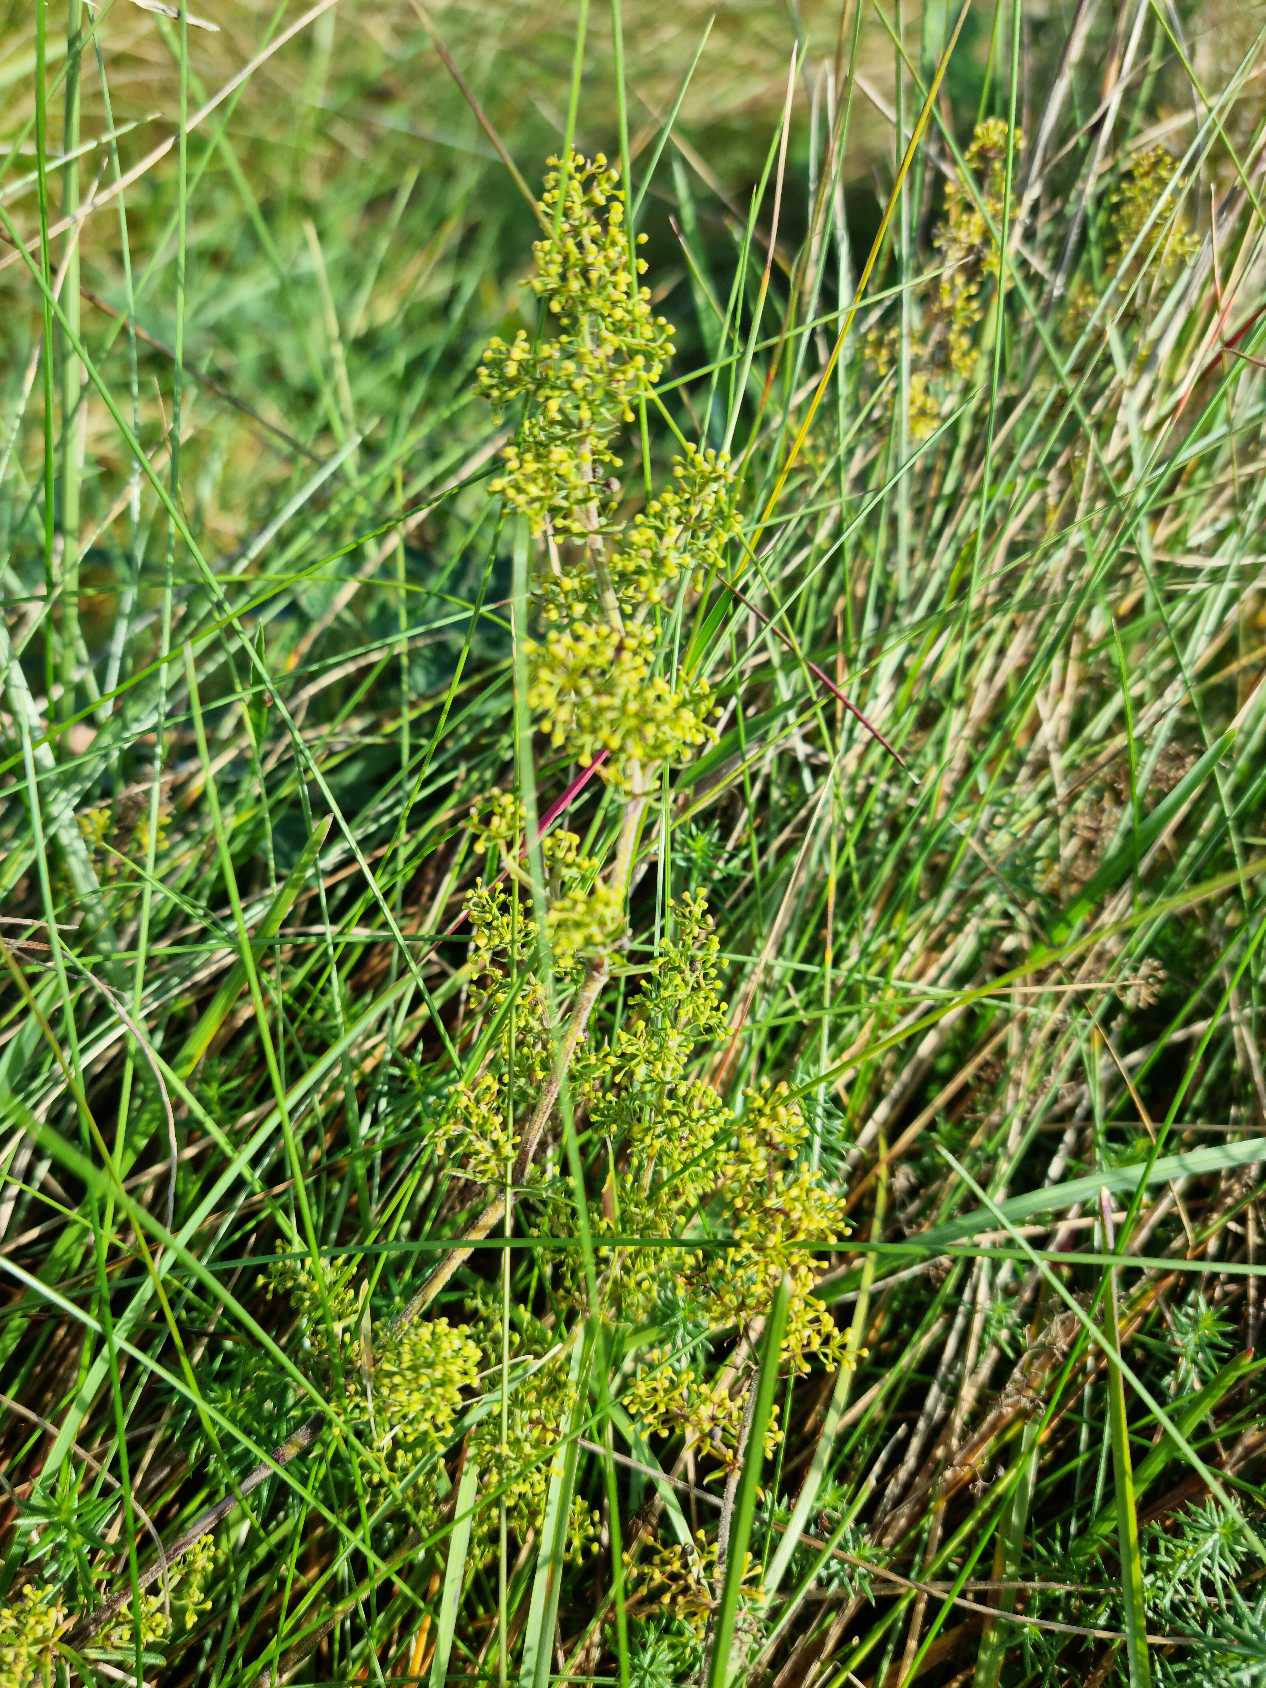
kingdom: Plantae
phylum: Tracheophyta
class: Magnoliopsida
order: Gentianales
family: Rubiaceae
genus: Galium
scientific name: Galium verum
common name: Gul snerre
